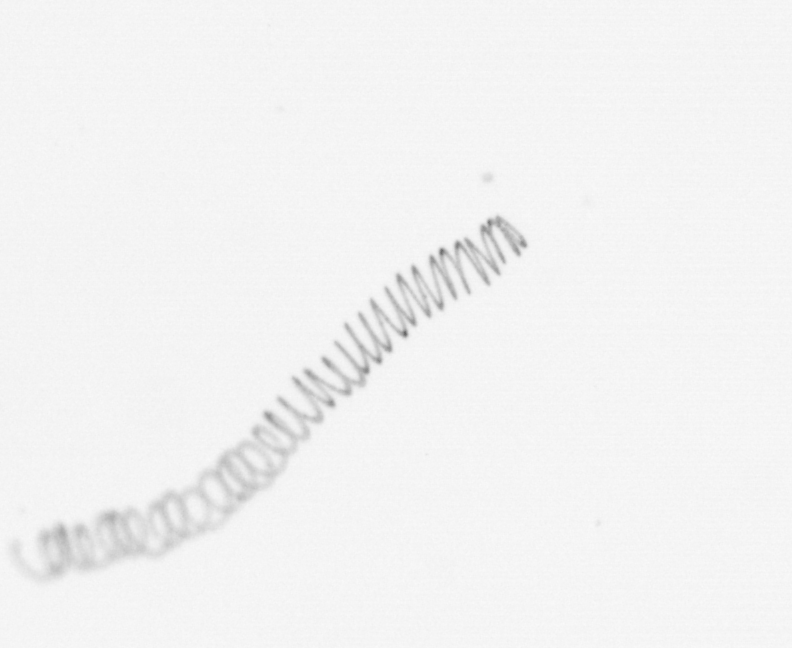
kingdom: Chromista
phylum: Ochrophyta
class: Bacillariophyceae
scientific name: Bacillariophyceae
